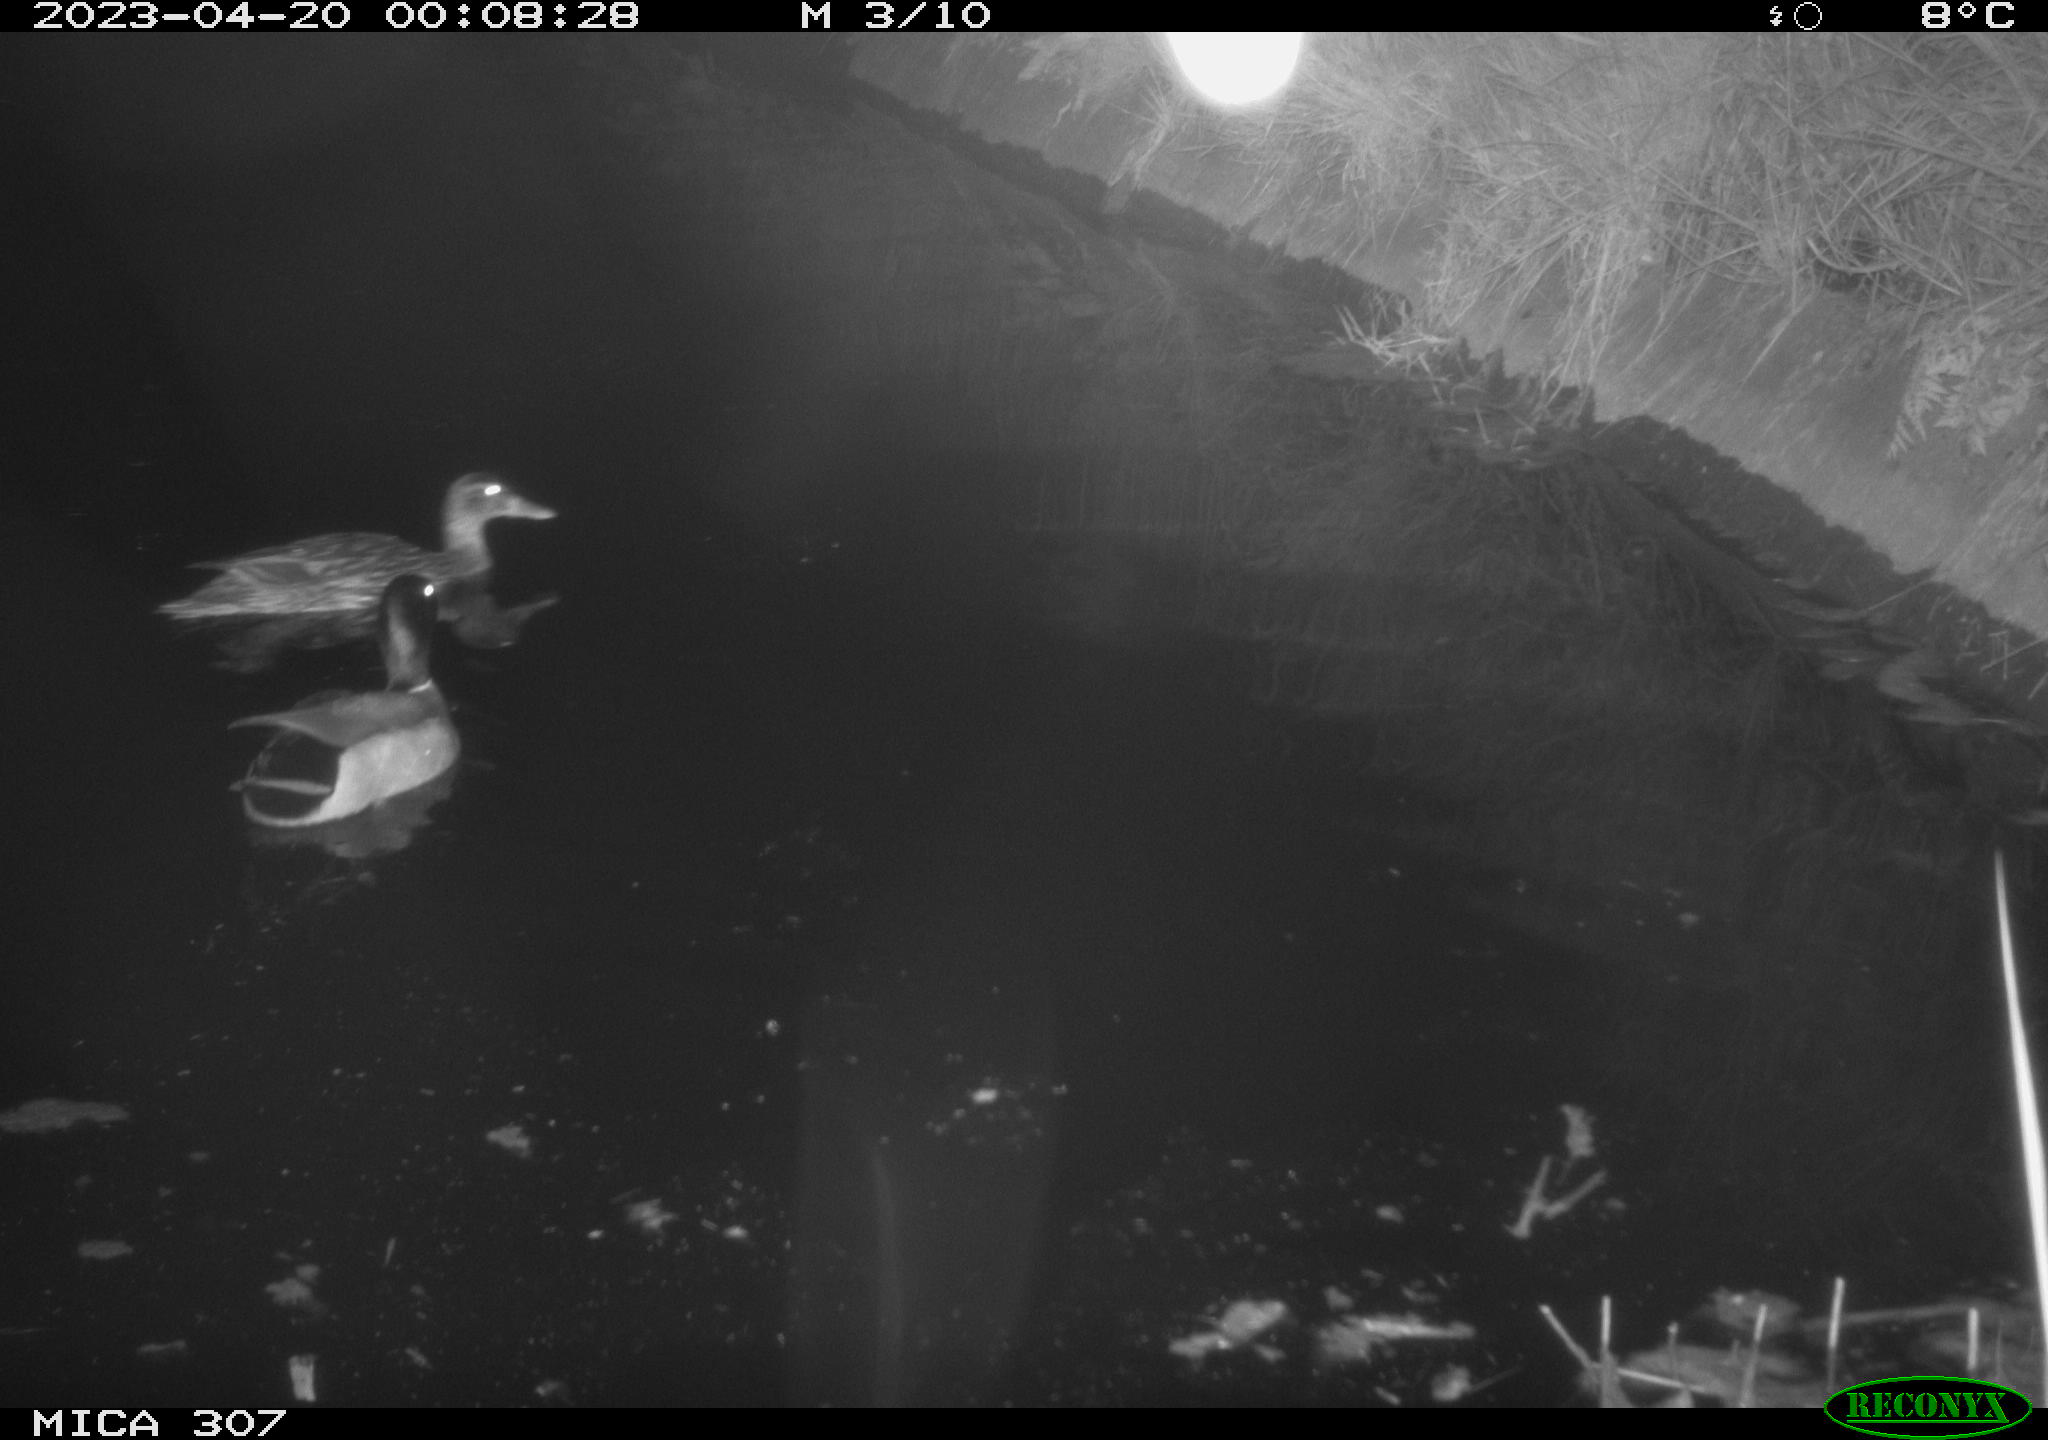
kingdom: Animalia
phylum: Chordata
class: Aves
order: Anseriformes
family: Anatidae
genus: Anas
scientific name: Anas
